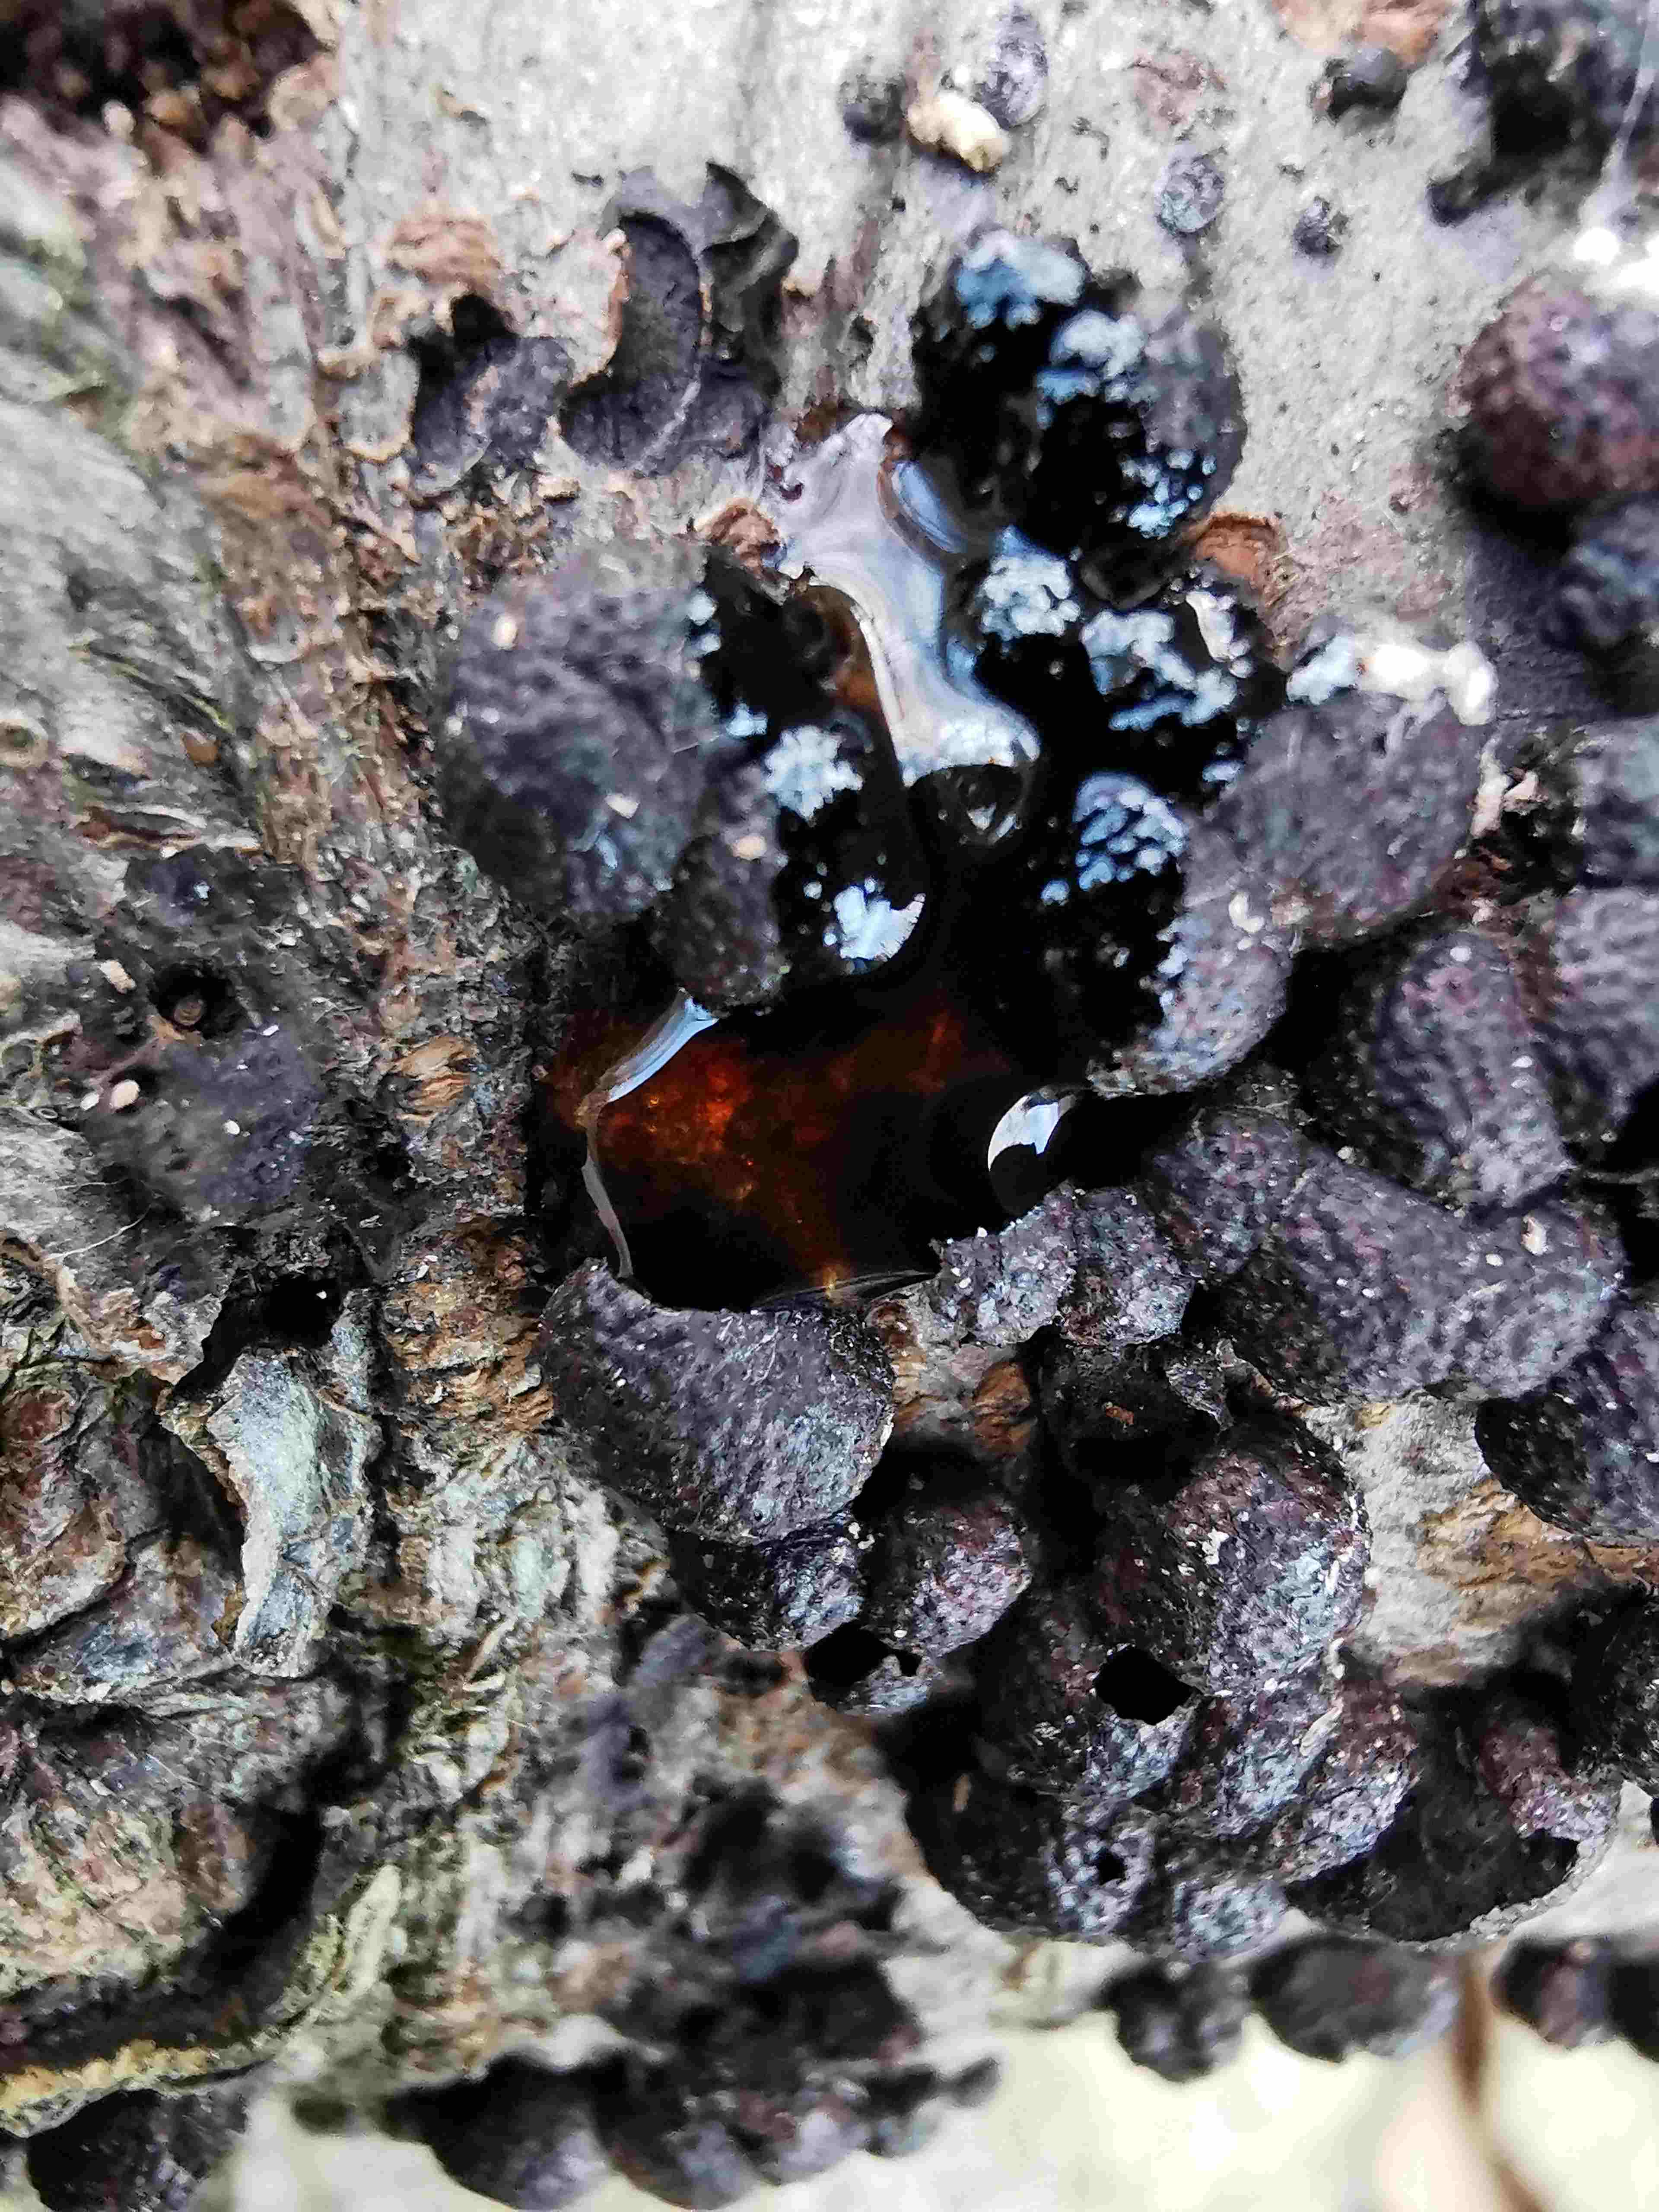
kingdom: Fungi
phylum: Ascomycota
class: Sordariomycetes
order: Xylariales
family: Hypoxylaceae
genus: Hypoxylon
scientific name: Hypoxylon fragiforme
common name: kuljordbær
